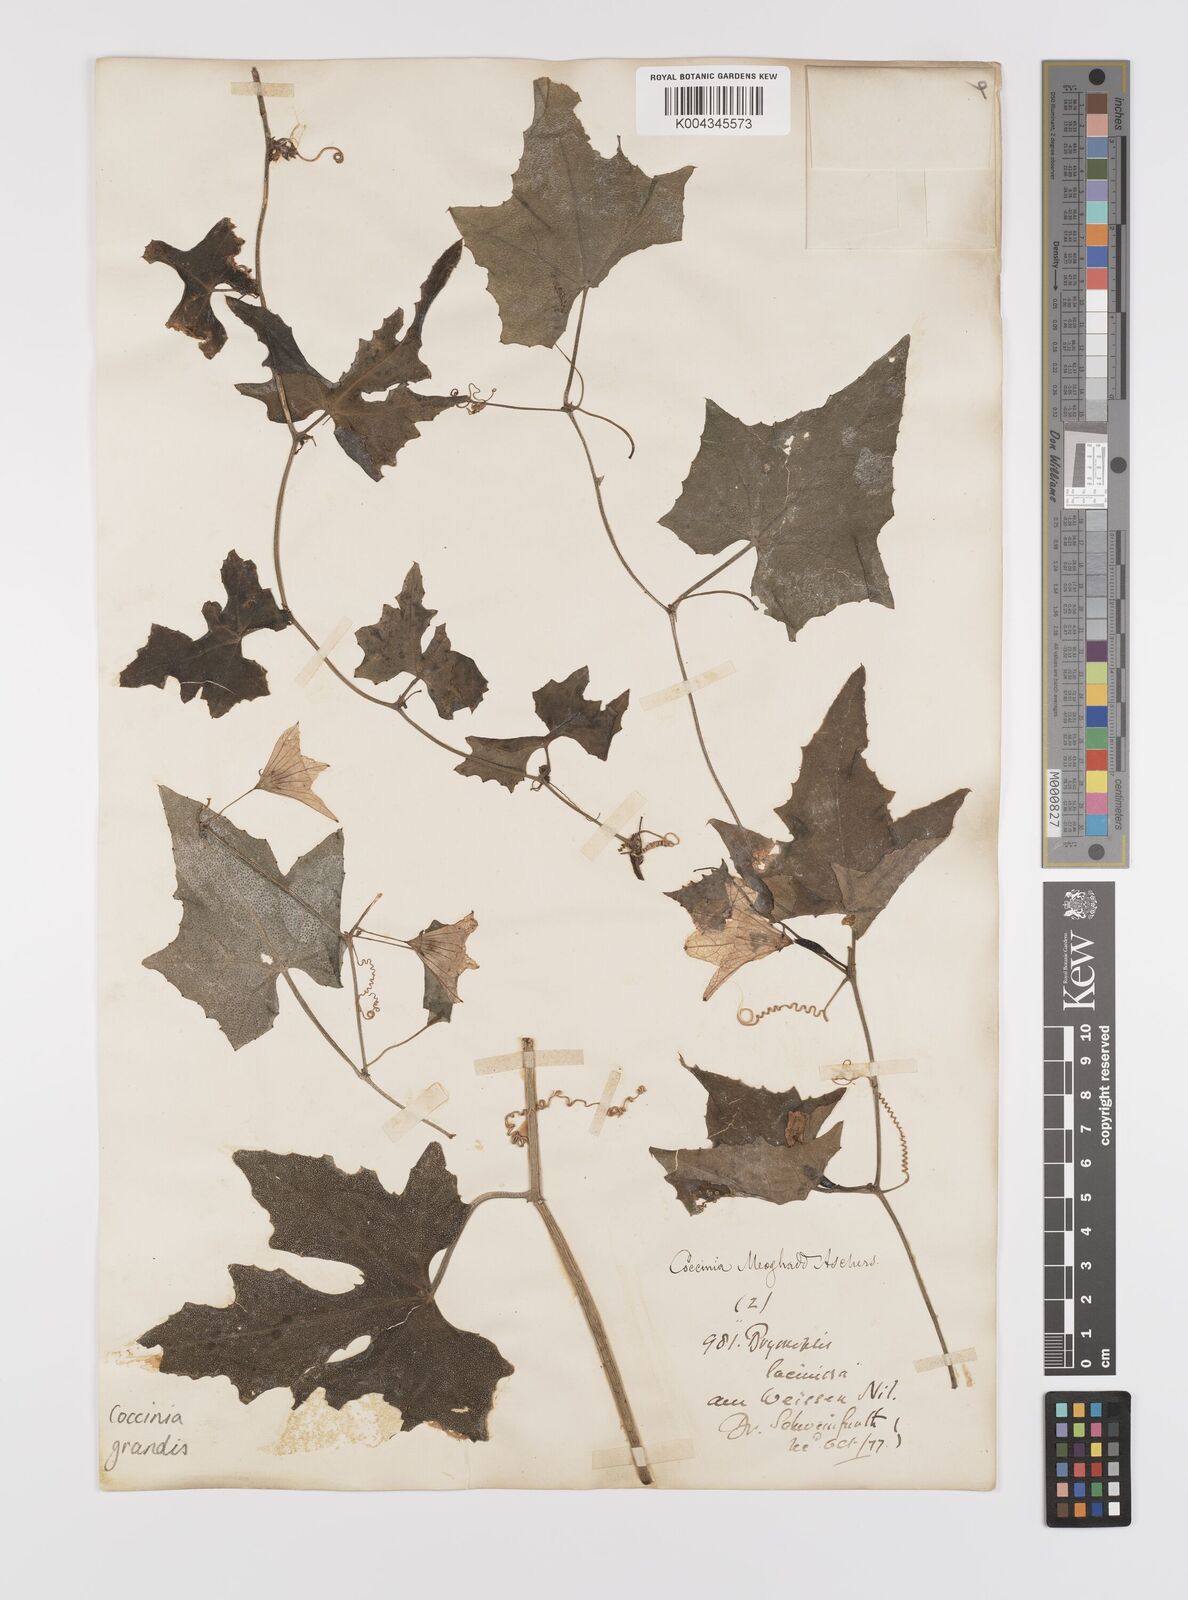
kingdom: Plantae
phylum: Tracheophyta
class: Magnoliopsida
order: Cucurbitales
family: Cucurbitaceae
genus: Coccinia
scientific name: Coccinia grandis
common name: Ivy gourd
